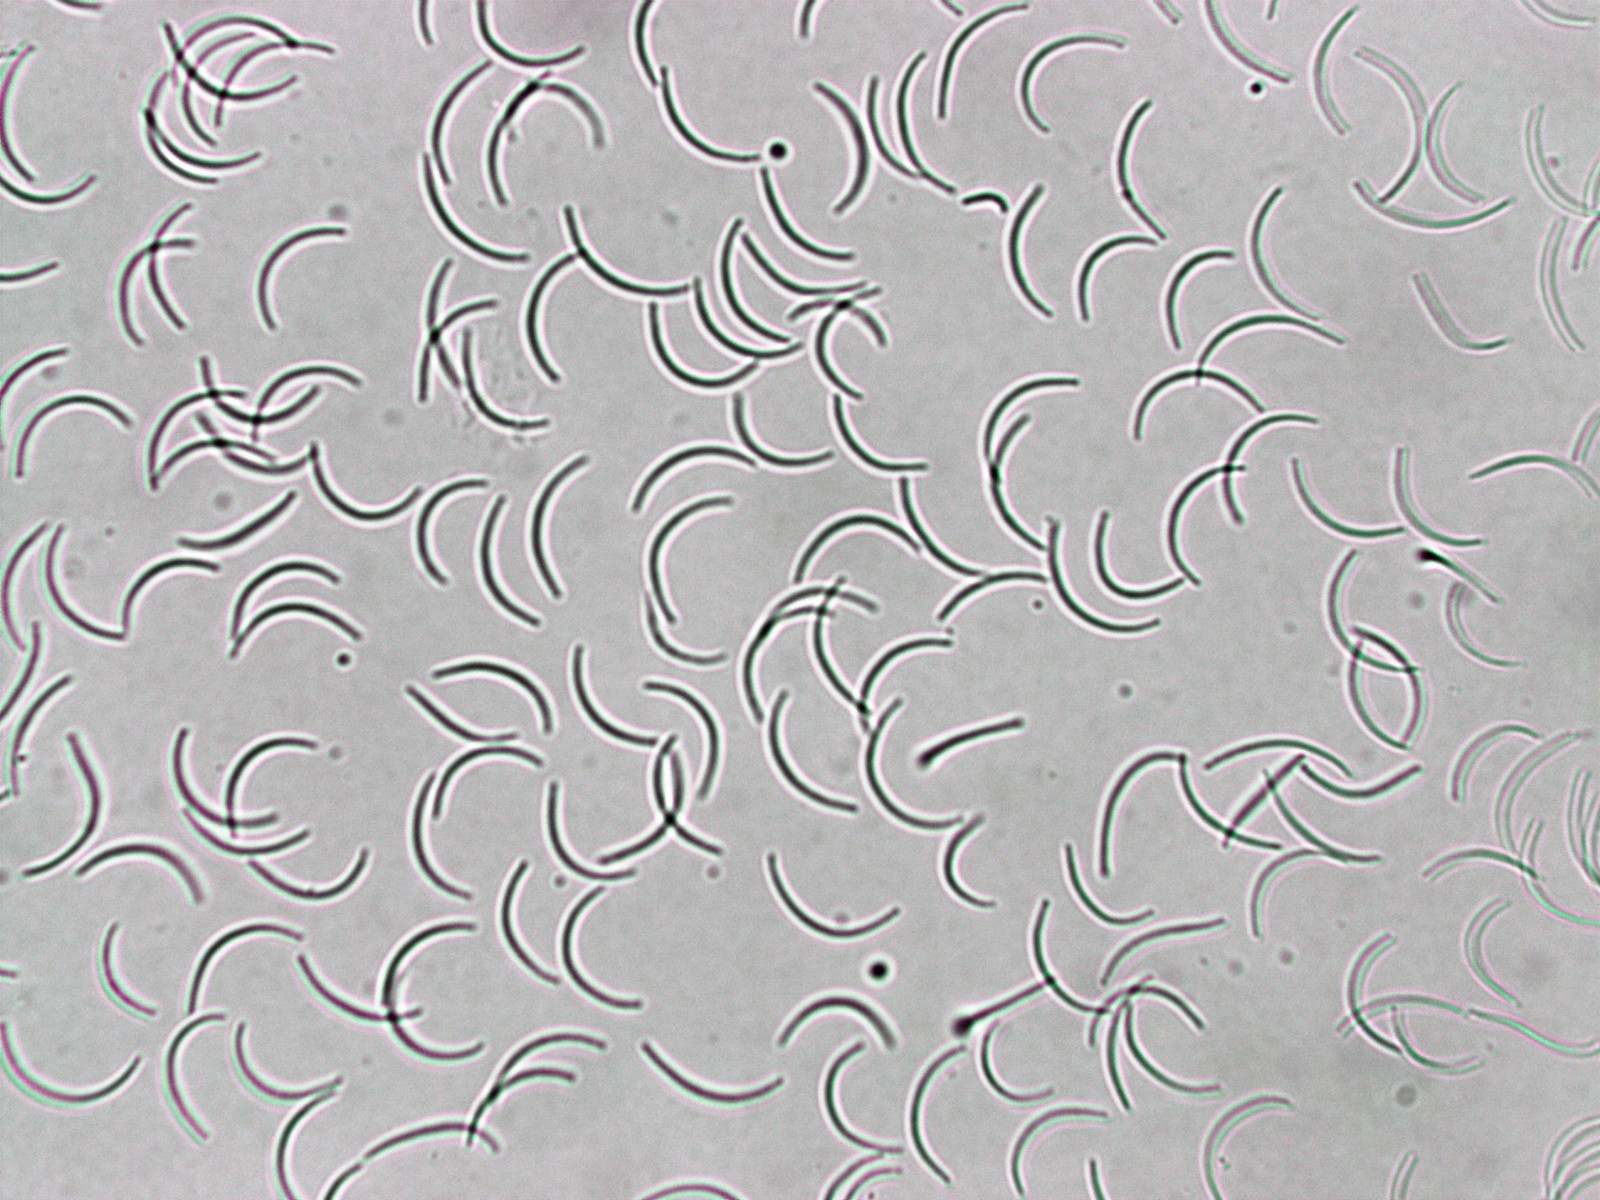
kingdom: Fungi
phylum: Ascomycota
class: Sordariomycetes
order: Xylariales
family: Diatrypaceae
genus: Eutypella
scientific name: Eutypella quaternata
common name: bøge-korsprik
